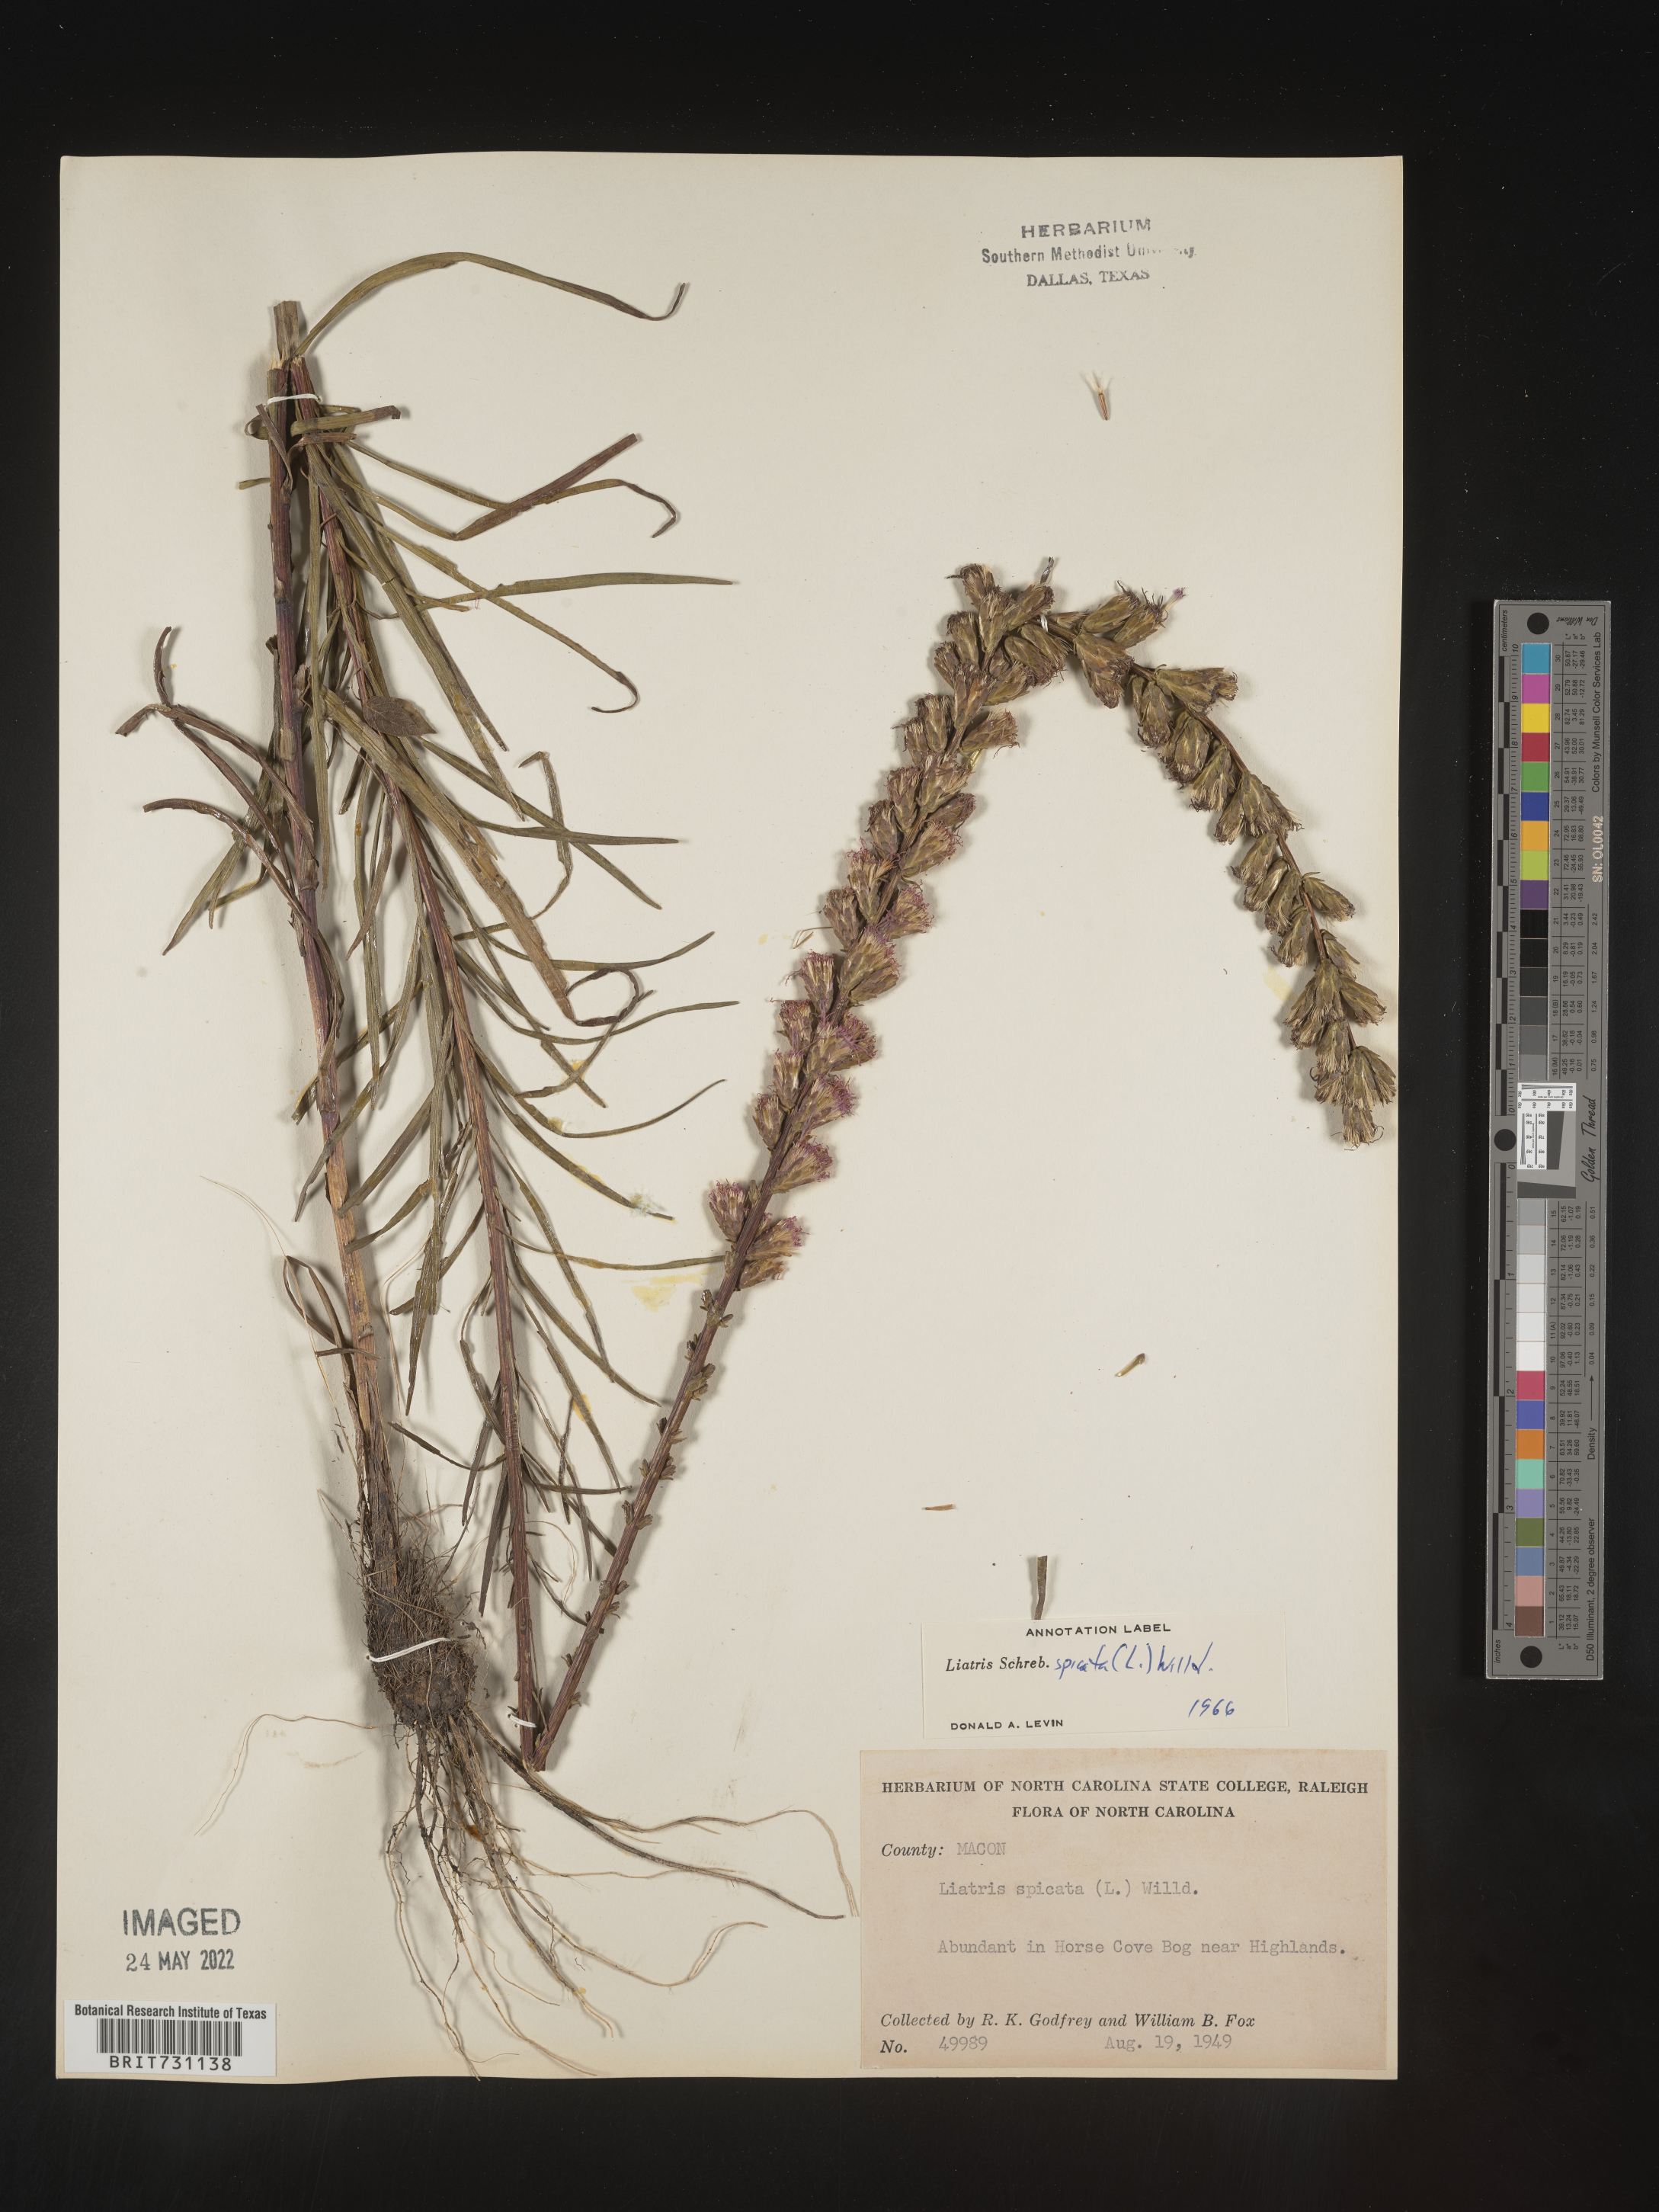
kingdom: Plantae
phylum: Tracheophyta
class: Magnoliopsida
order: Asterales
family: Asteraceae
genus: Liatris
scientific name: Liatris spicata
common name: Florist gayfeather
